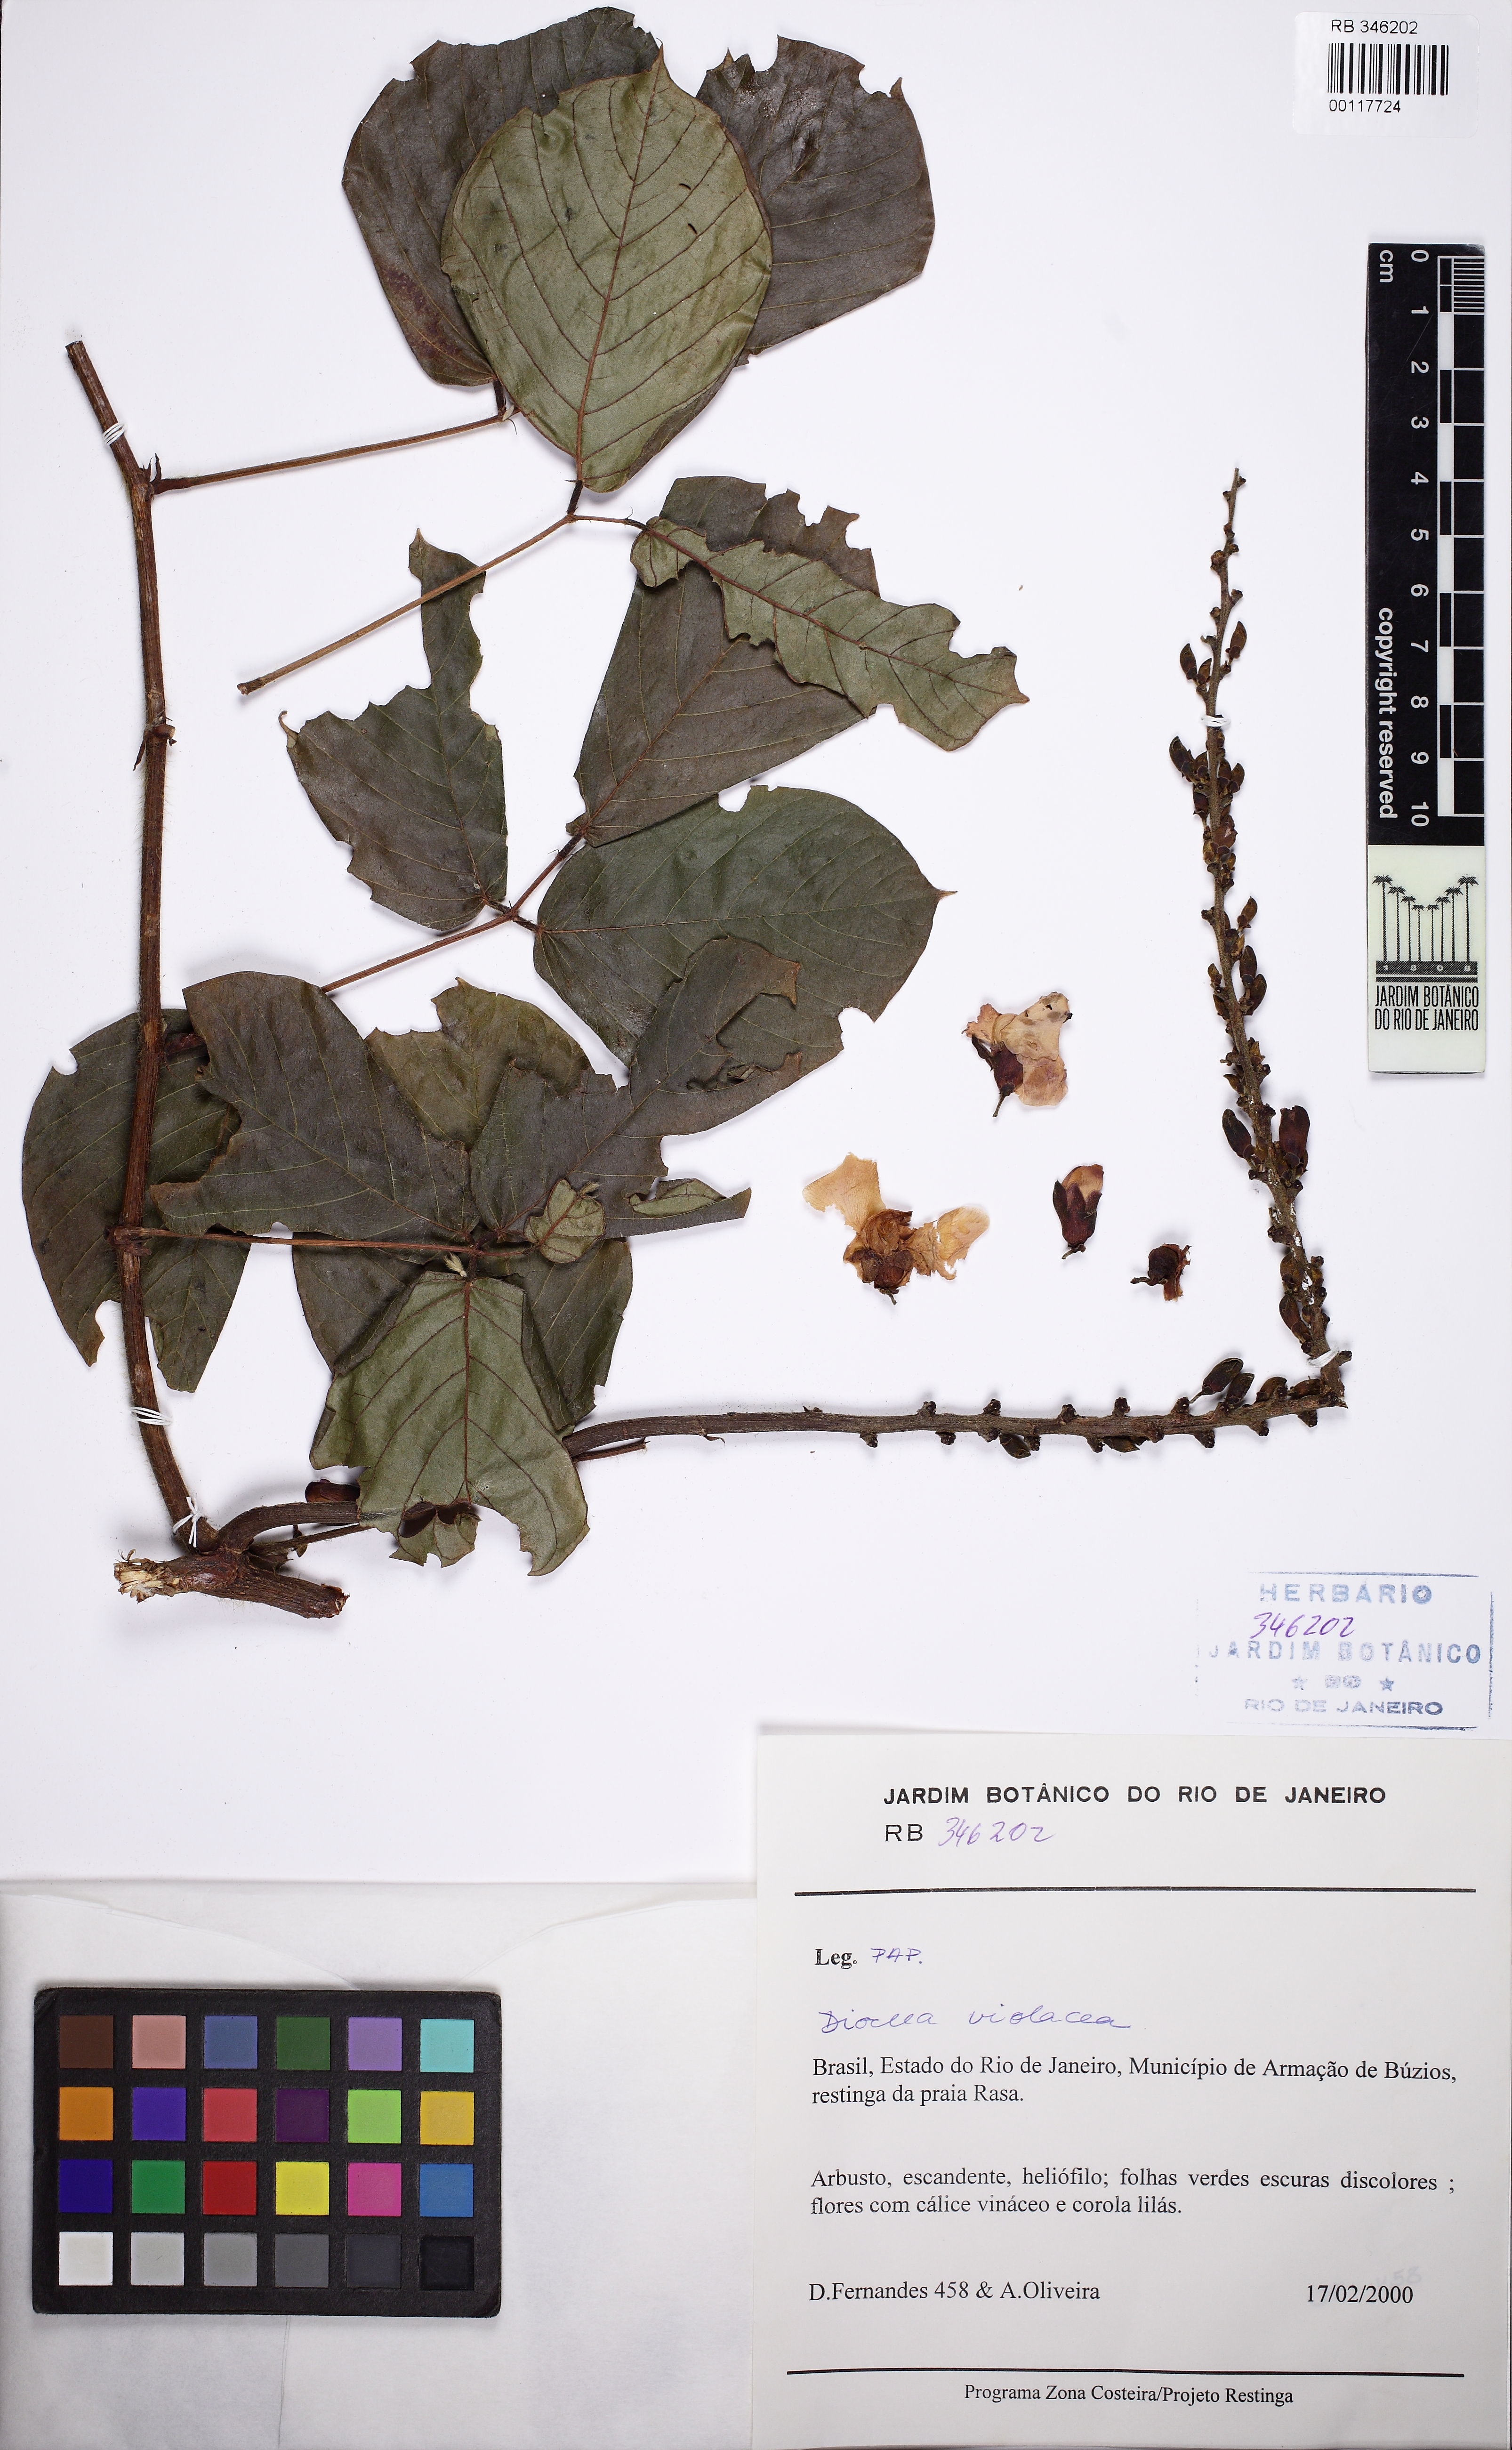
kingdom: Plantae
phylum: Tracheophyta
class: Magnoliopsida
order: Fabales
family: Fabaceae
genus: Macropsychanthus
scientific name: Macropsychanthus violaceus
